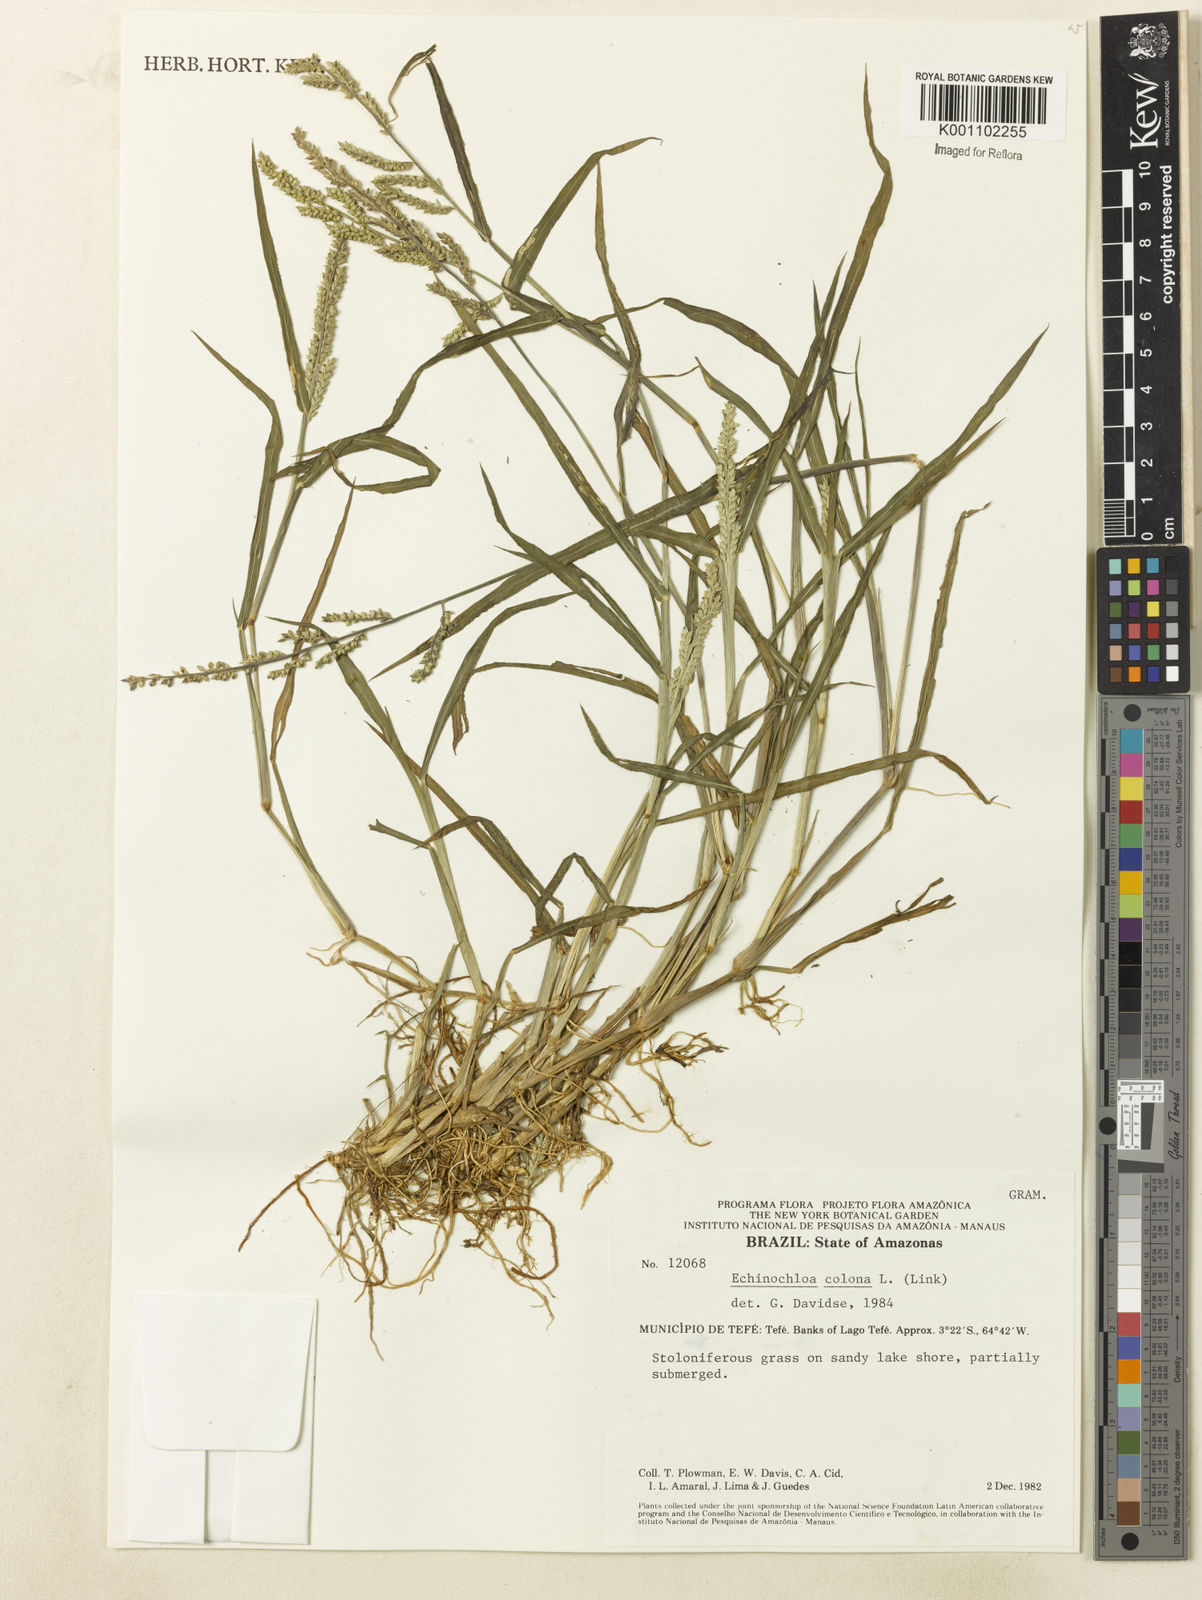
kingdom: Plantae
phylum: Tracheophyta
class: Liliopsida
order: Poales
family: Poaceae
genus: Echinochloa
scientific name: Echinochloa colonum
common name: Jungle rice
